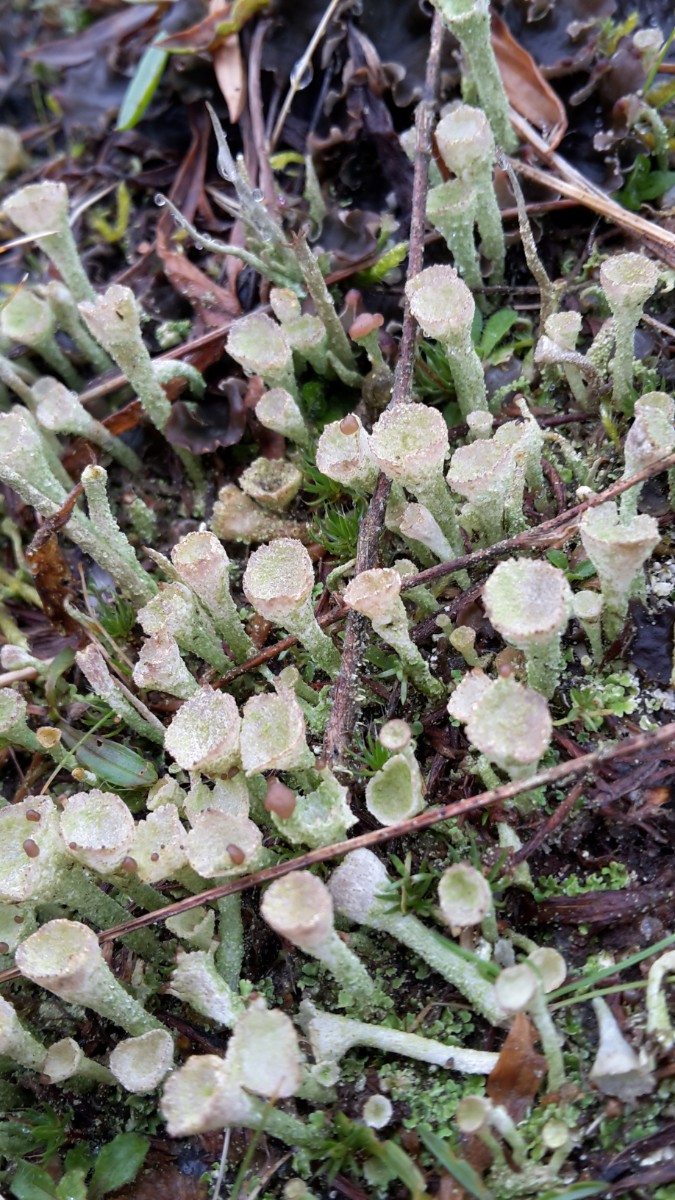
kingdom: Fungi
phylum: Ascomycota
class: Lecanoromycetes
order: Lecanorales
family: Cladoniaceae
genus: Cladonia
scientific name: Cladonia
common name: brungrøn bægerlav
